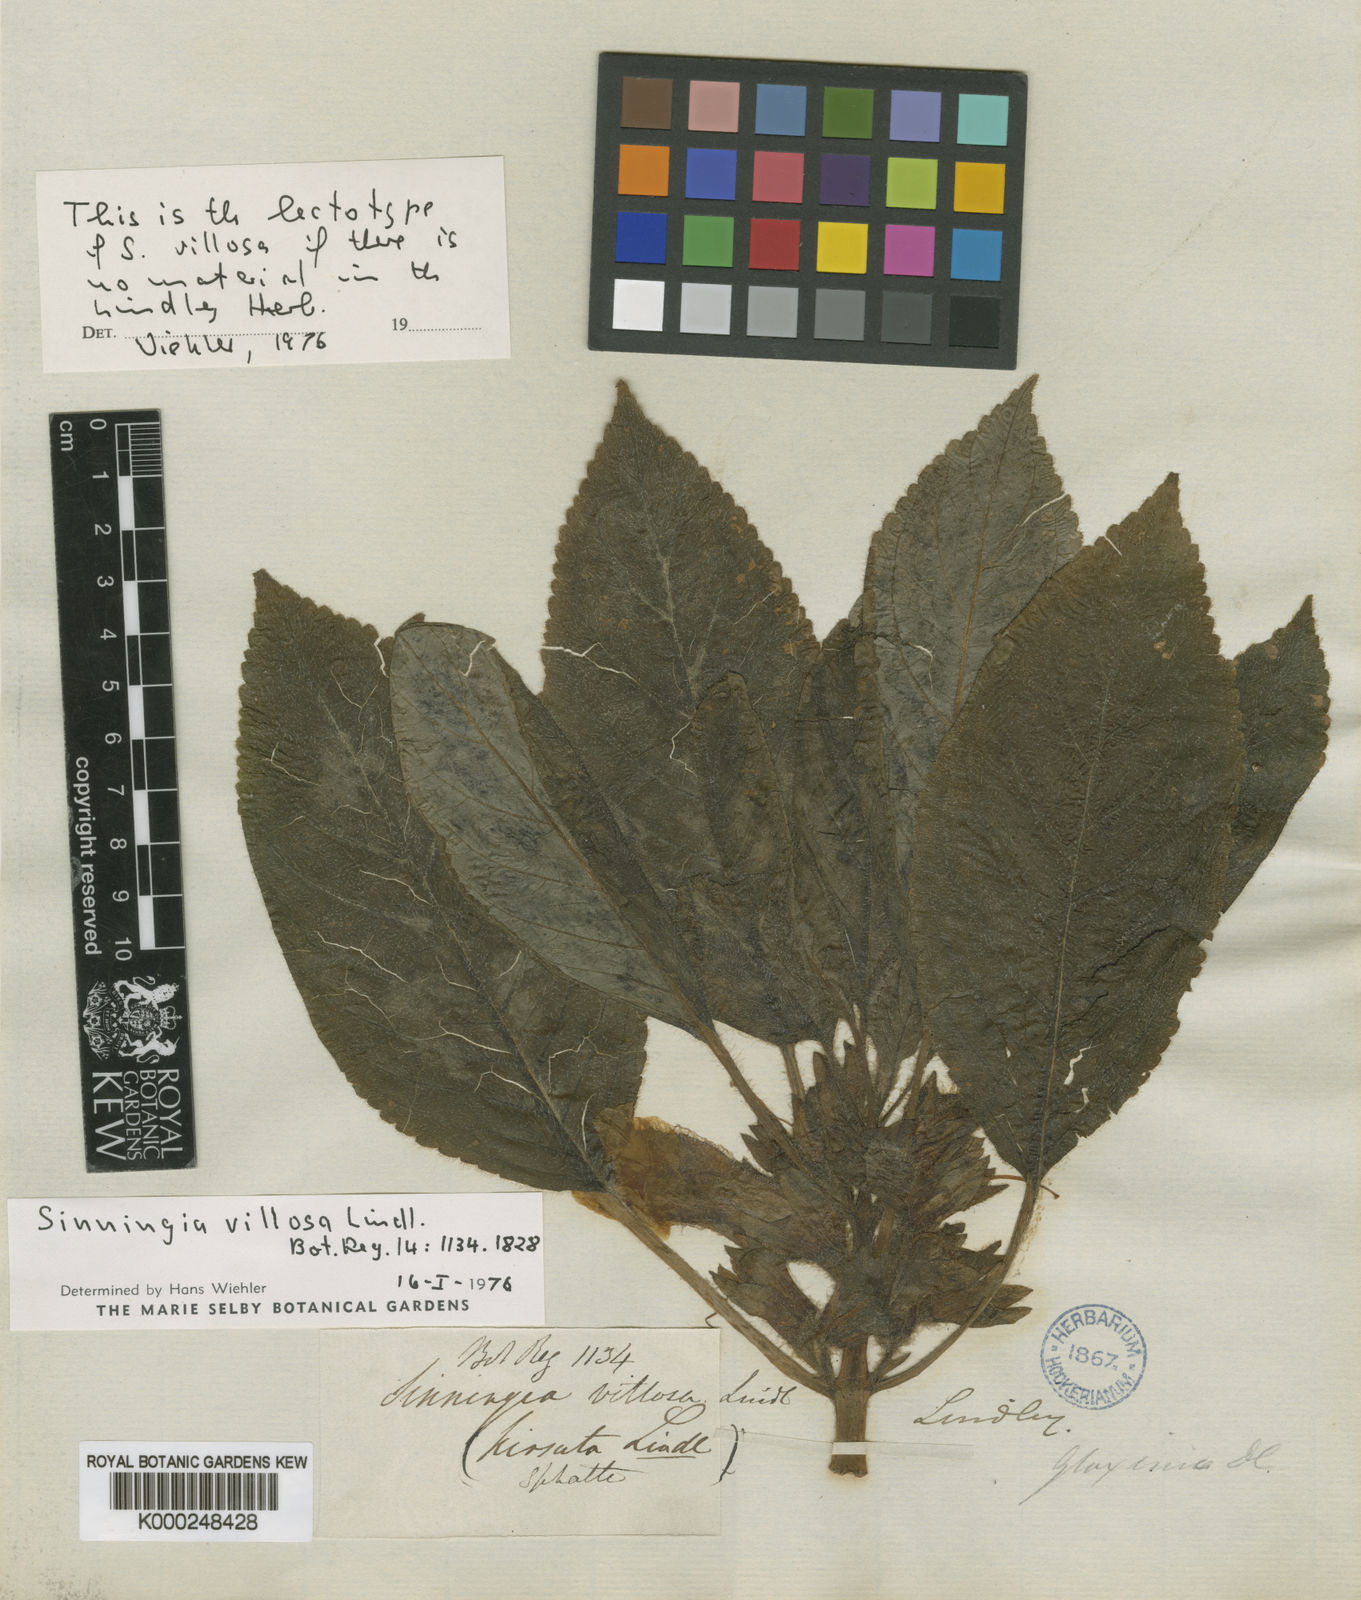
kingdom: Plantae
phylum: Tracheophyta
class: Magnoliopsida
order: Lamiales
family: Gesneriaceae
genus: Sinningia
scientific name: Sinningia villosa
